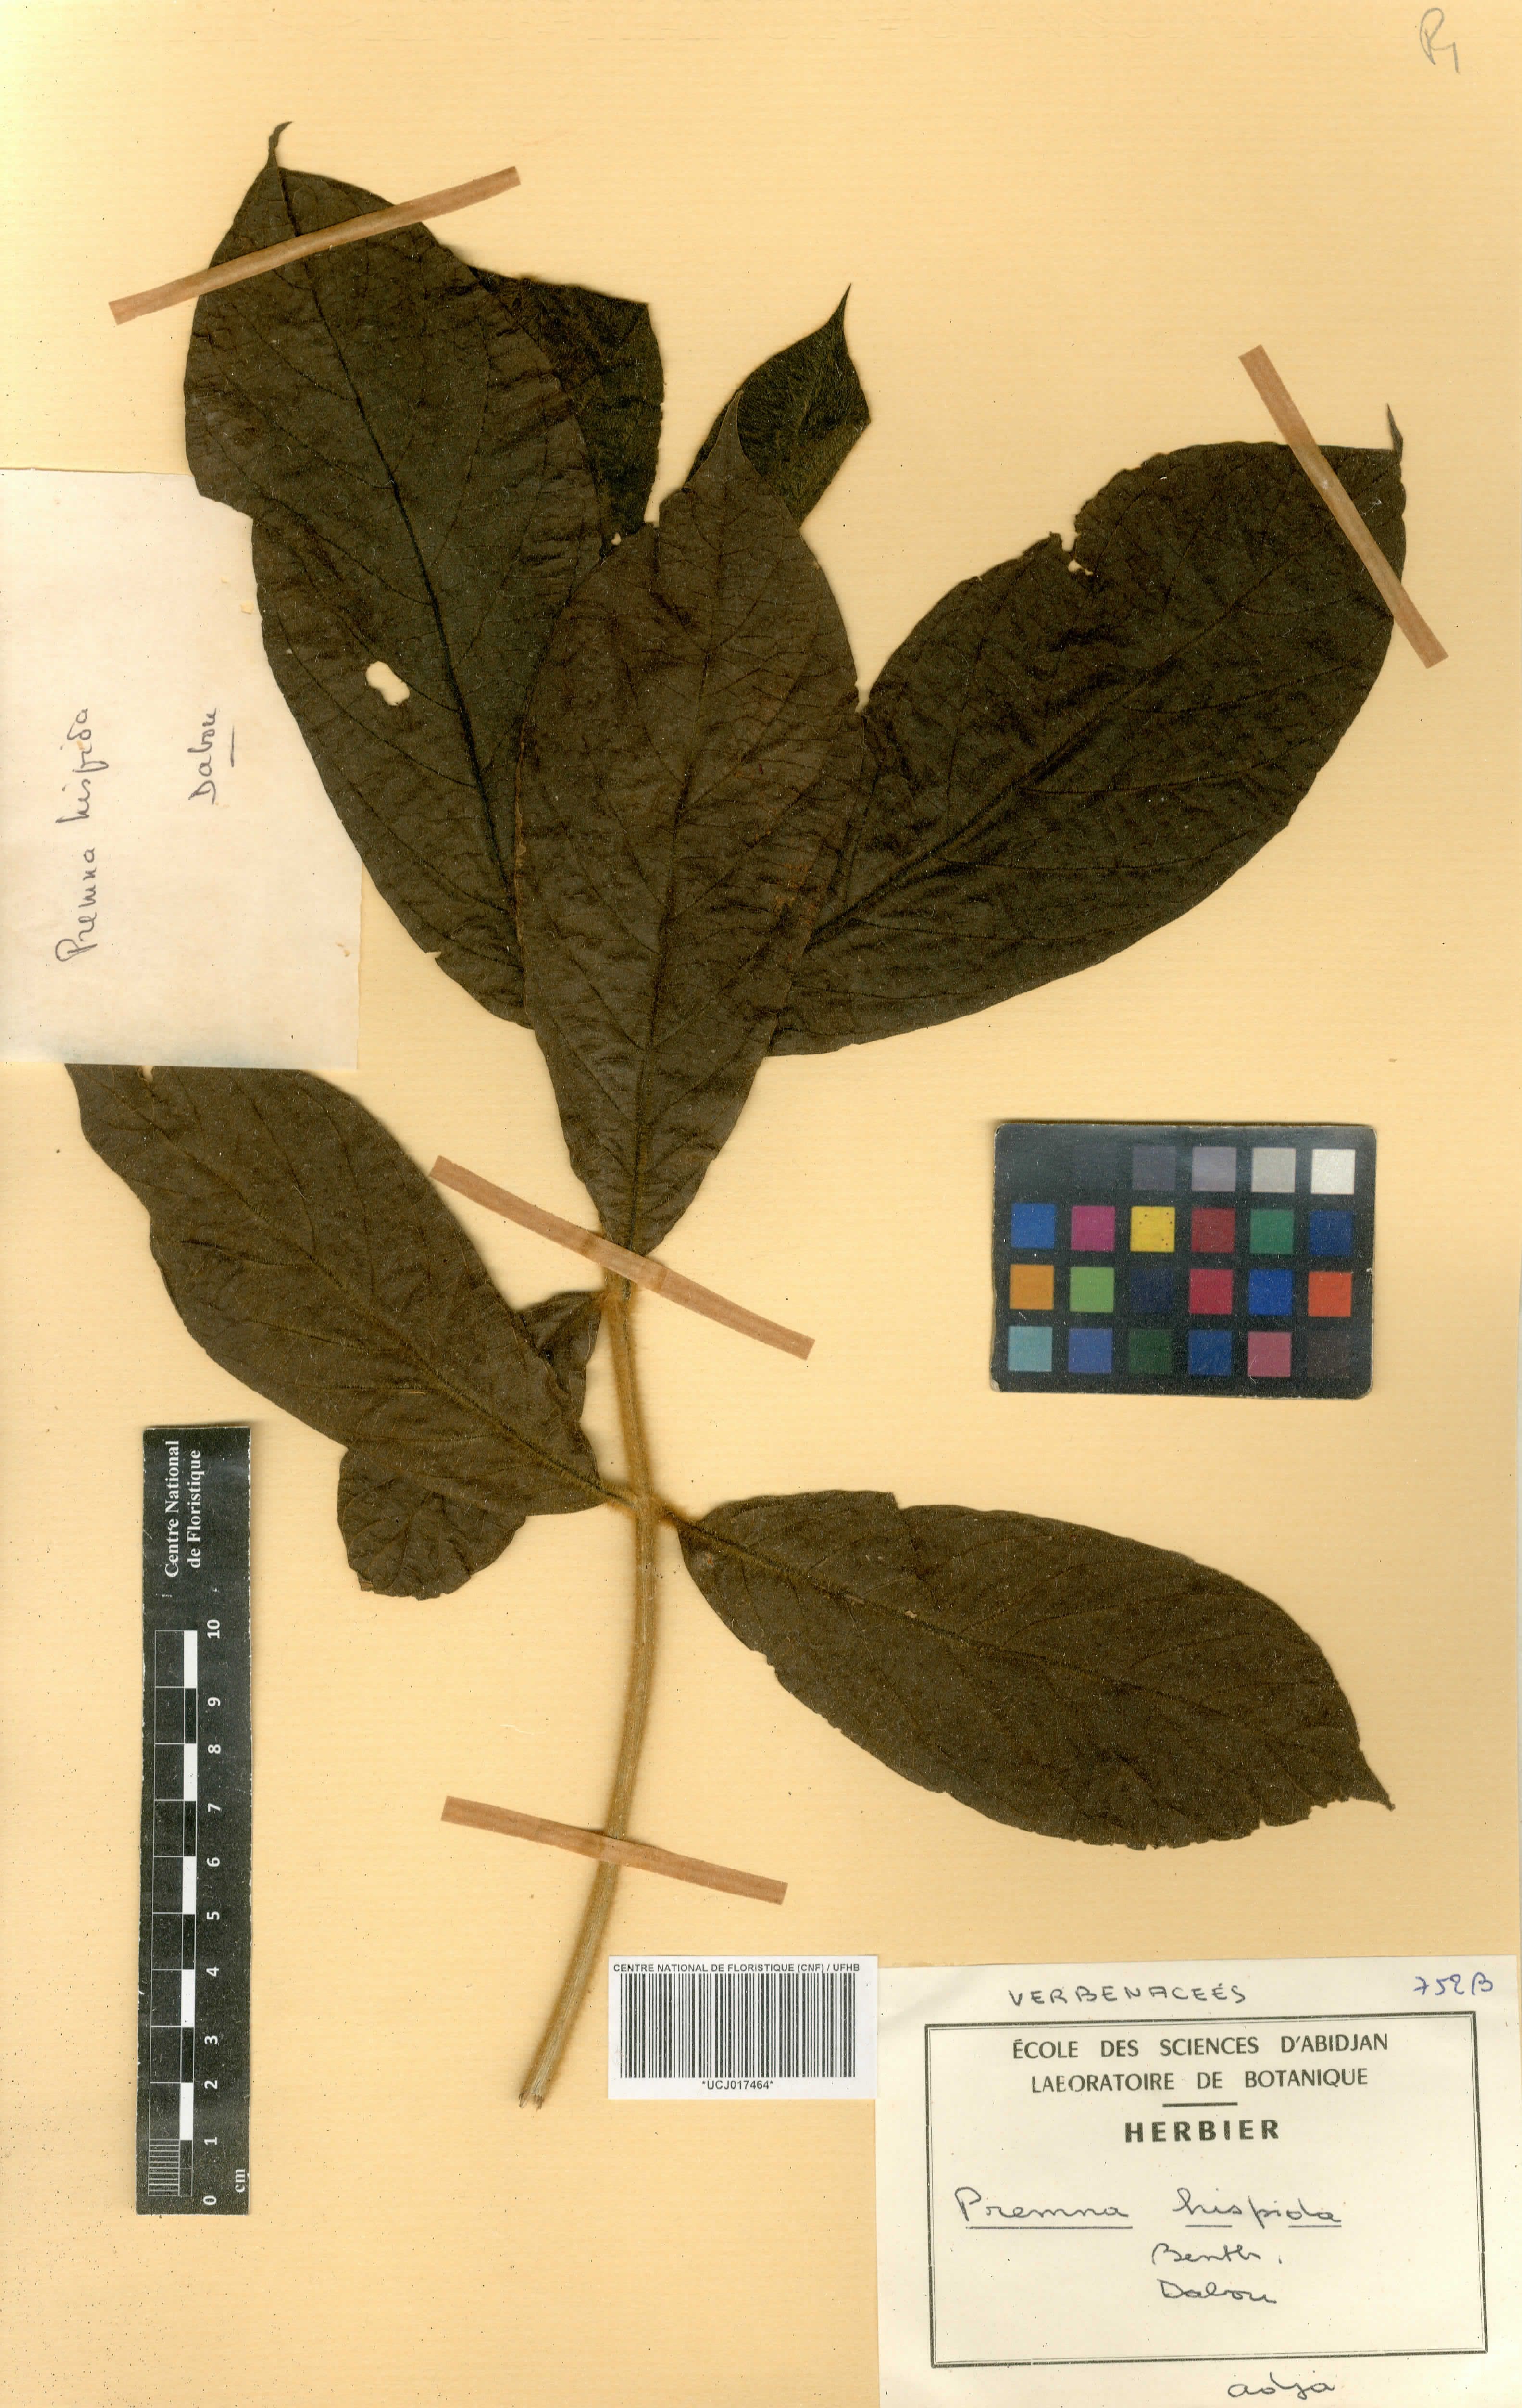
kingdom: Plantae
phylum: Tracheophyta
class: Magnoliopsida
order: Lamiales
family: Lamiaceae
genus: Premna
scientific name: Premna hispida
